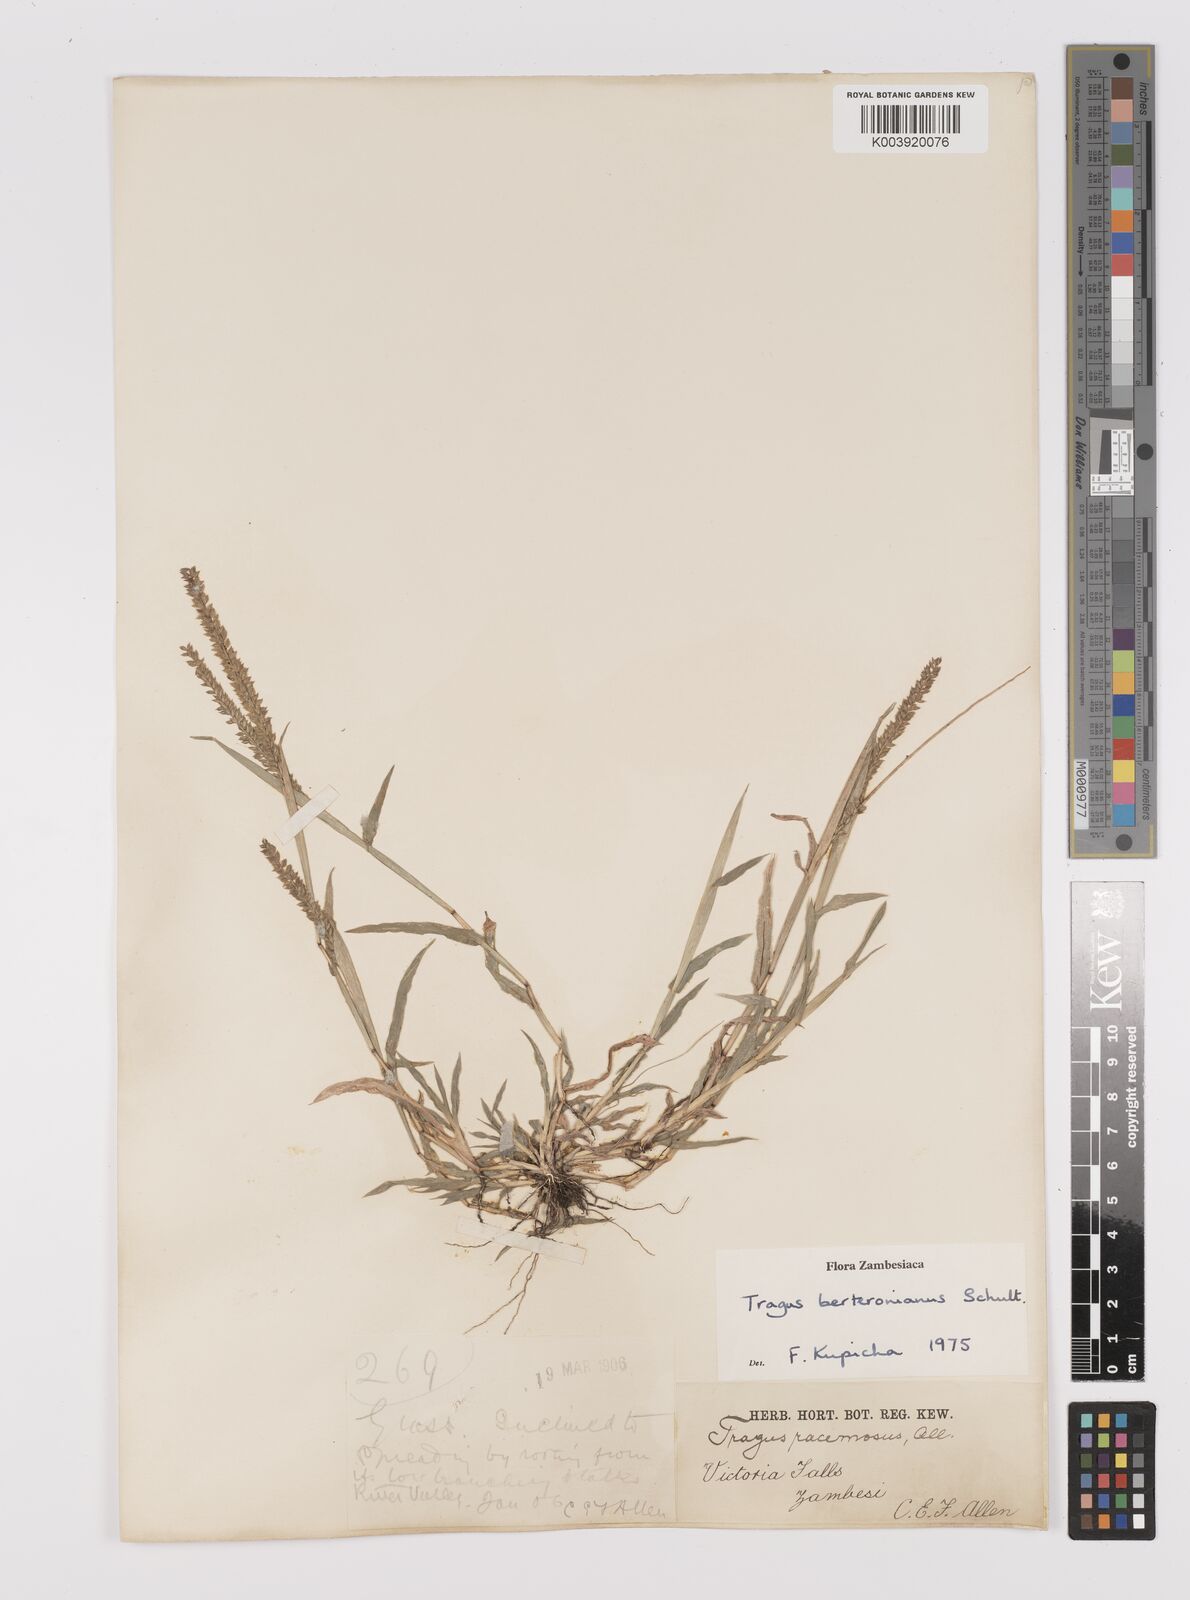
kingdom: Plantae
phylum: Tracheophyta
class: Liliopsida
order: Poales
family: Poaceae
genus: Tragus
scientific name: Tragus berteronianus
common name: African bur-grass
